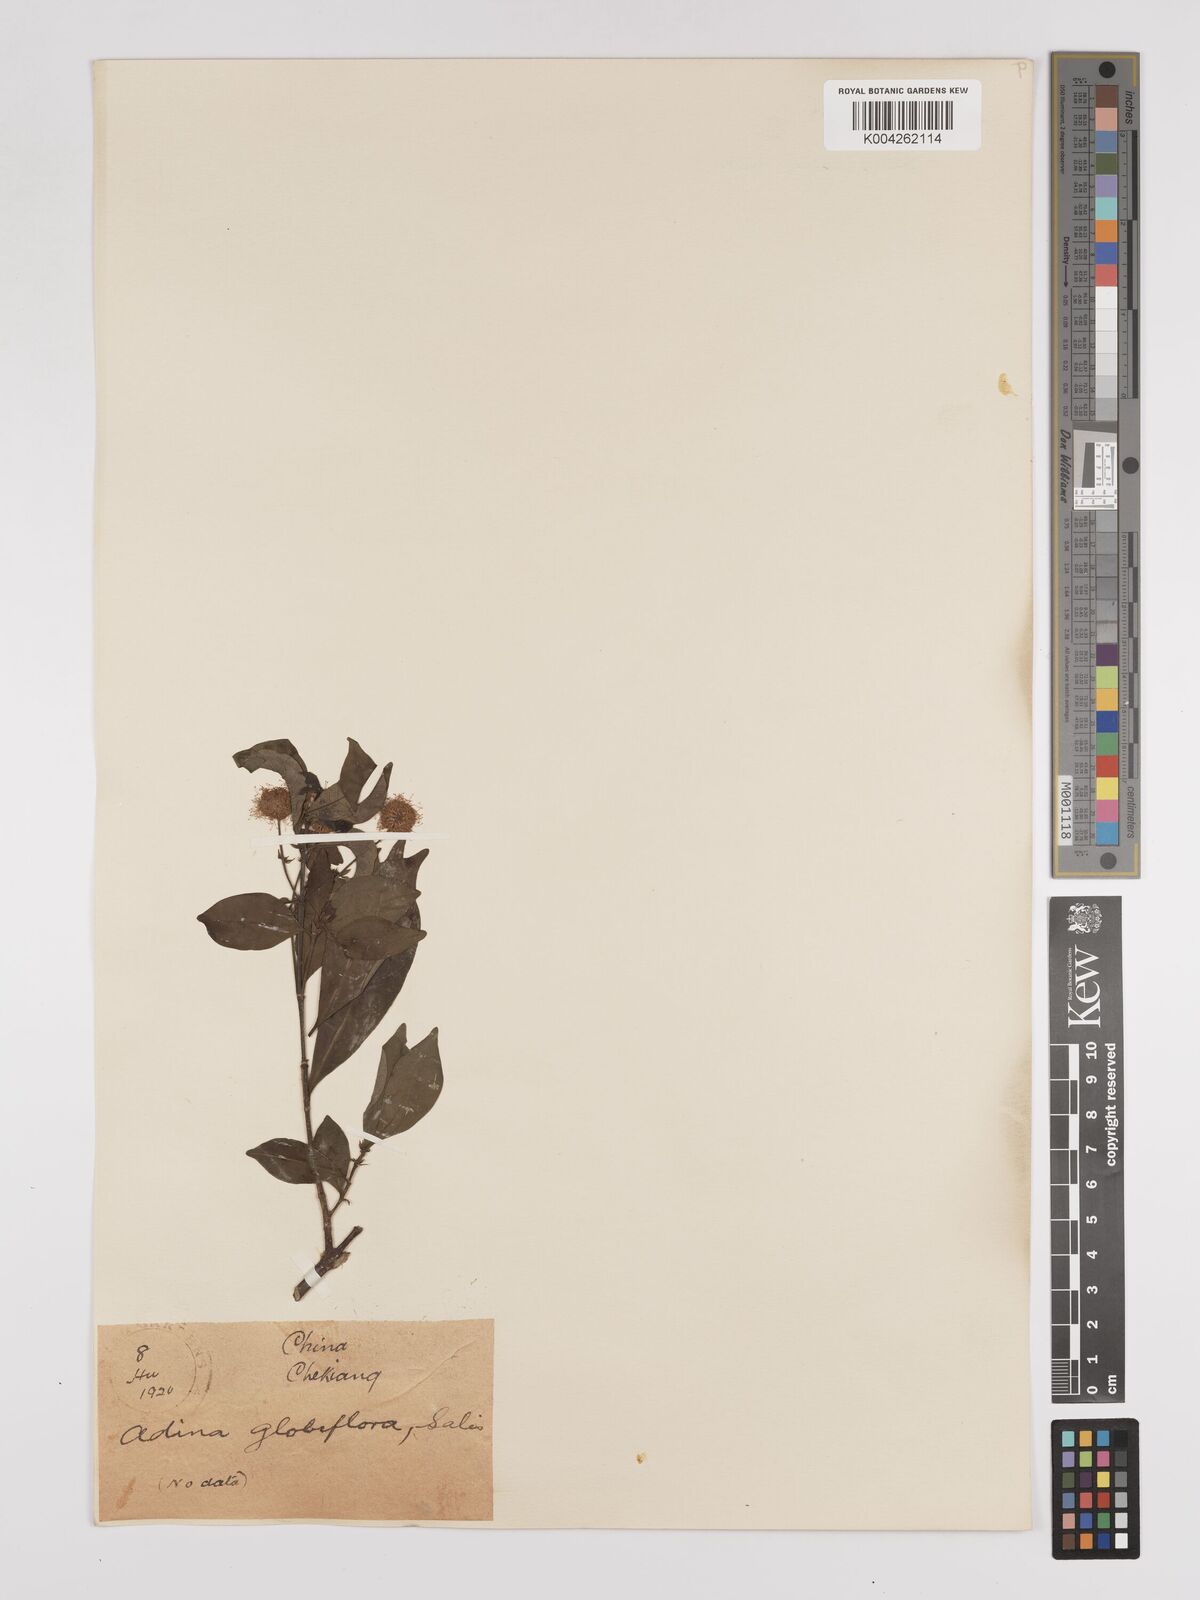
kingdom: Plantae
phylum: Tracheophyta
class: Magnoliopsida
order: Gentianales
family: Rubiaceae
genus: Adina
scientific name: Adina pilulifera
